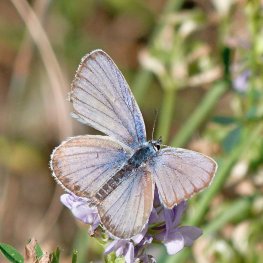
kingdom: Animalia
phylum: Arthropoda
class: Insecta
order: Lepidoptera
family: Lycaenidae
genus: Lycaeides
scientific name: Lycaeides melissa
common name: Melissa Blue
